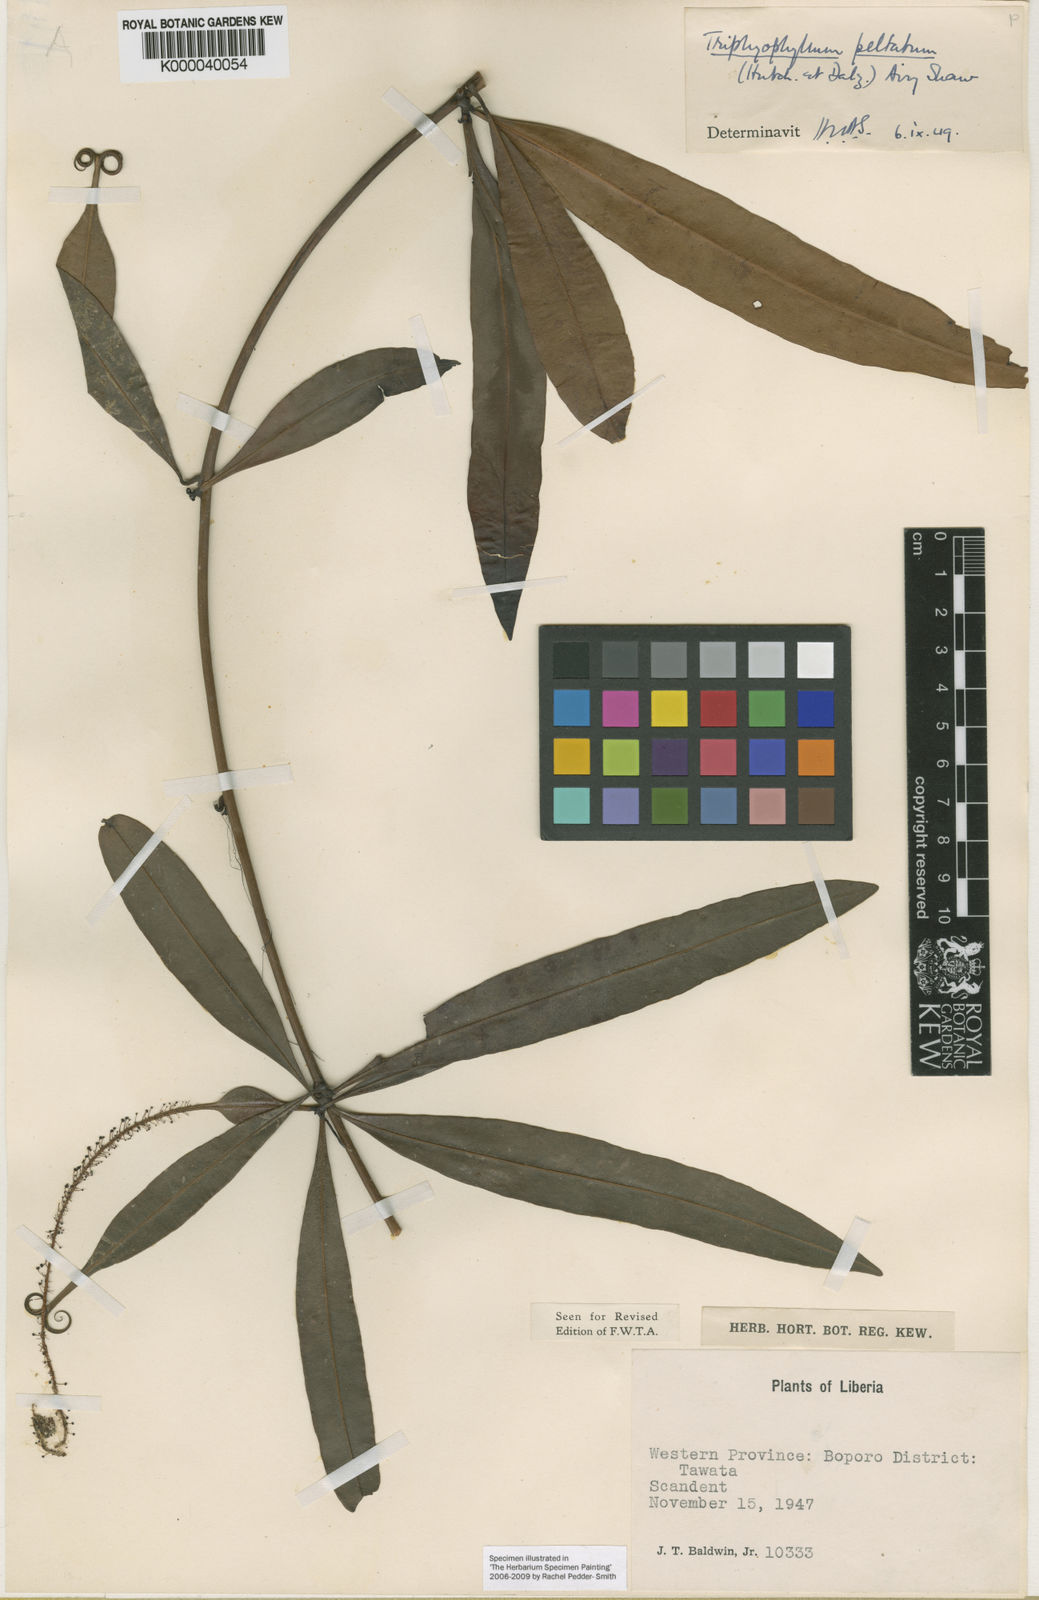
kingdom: Plantae
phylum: Tracheophyta
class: Magnoliopsida
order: Caryophyllales
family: Dioncophyllaceae
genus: Triphyophyllum
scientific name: Triphyophyllum peltatum
